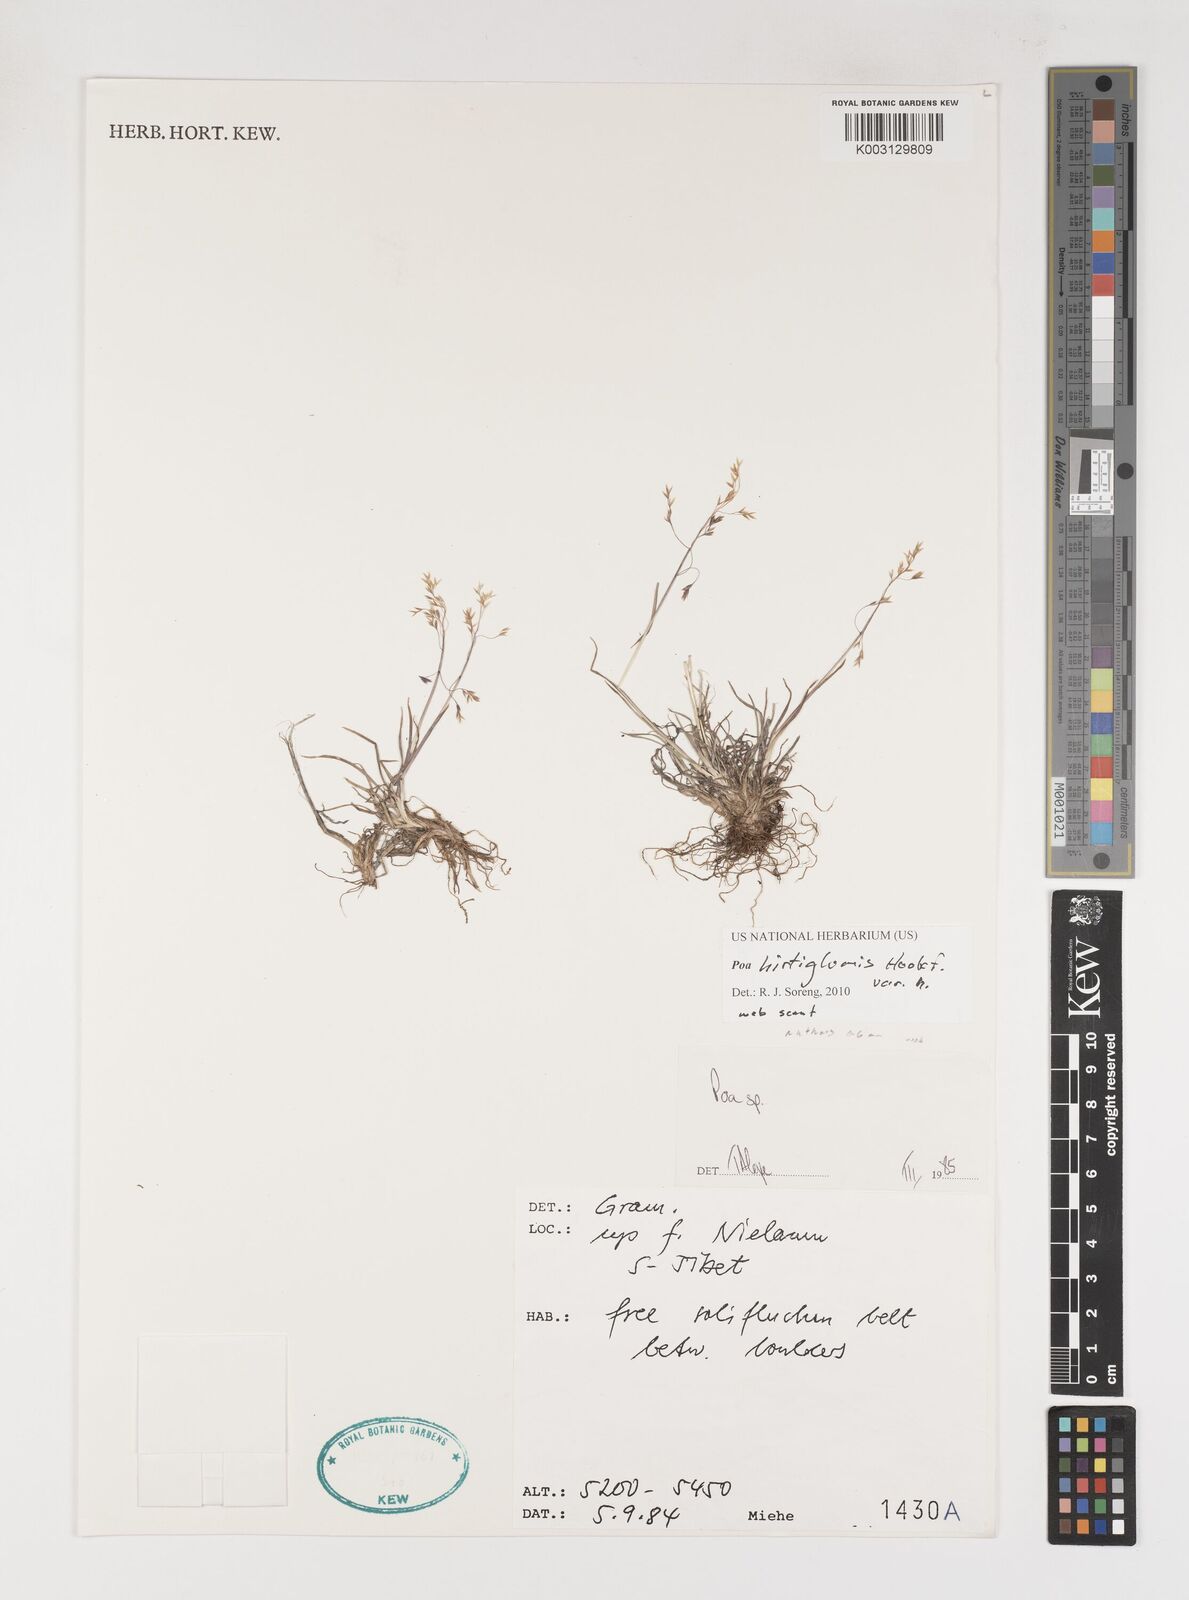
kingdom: Plantae
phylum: Tracheophyta
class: Liliopsida
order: Poales
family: Poaceae
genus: Poa
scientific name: Poa hirtiglumis
